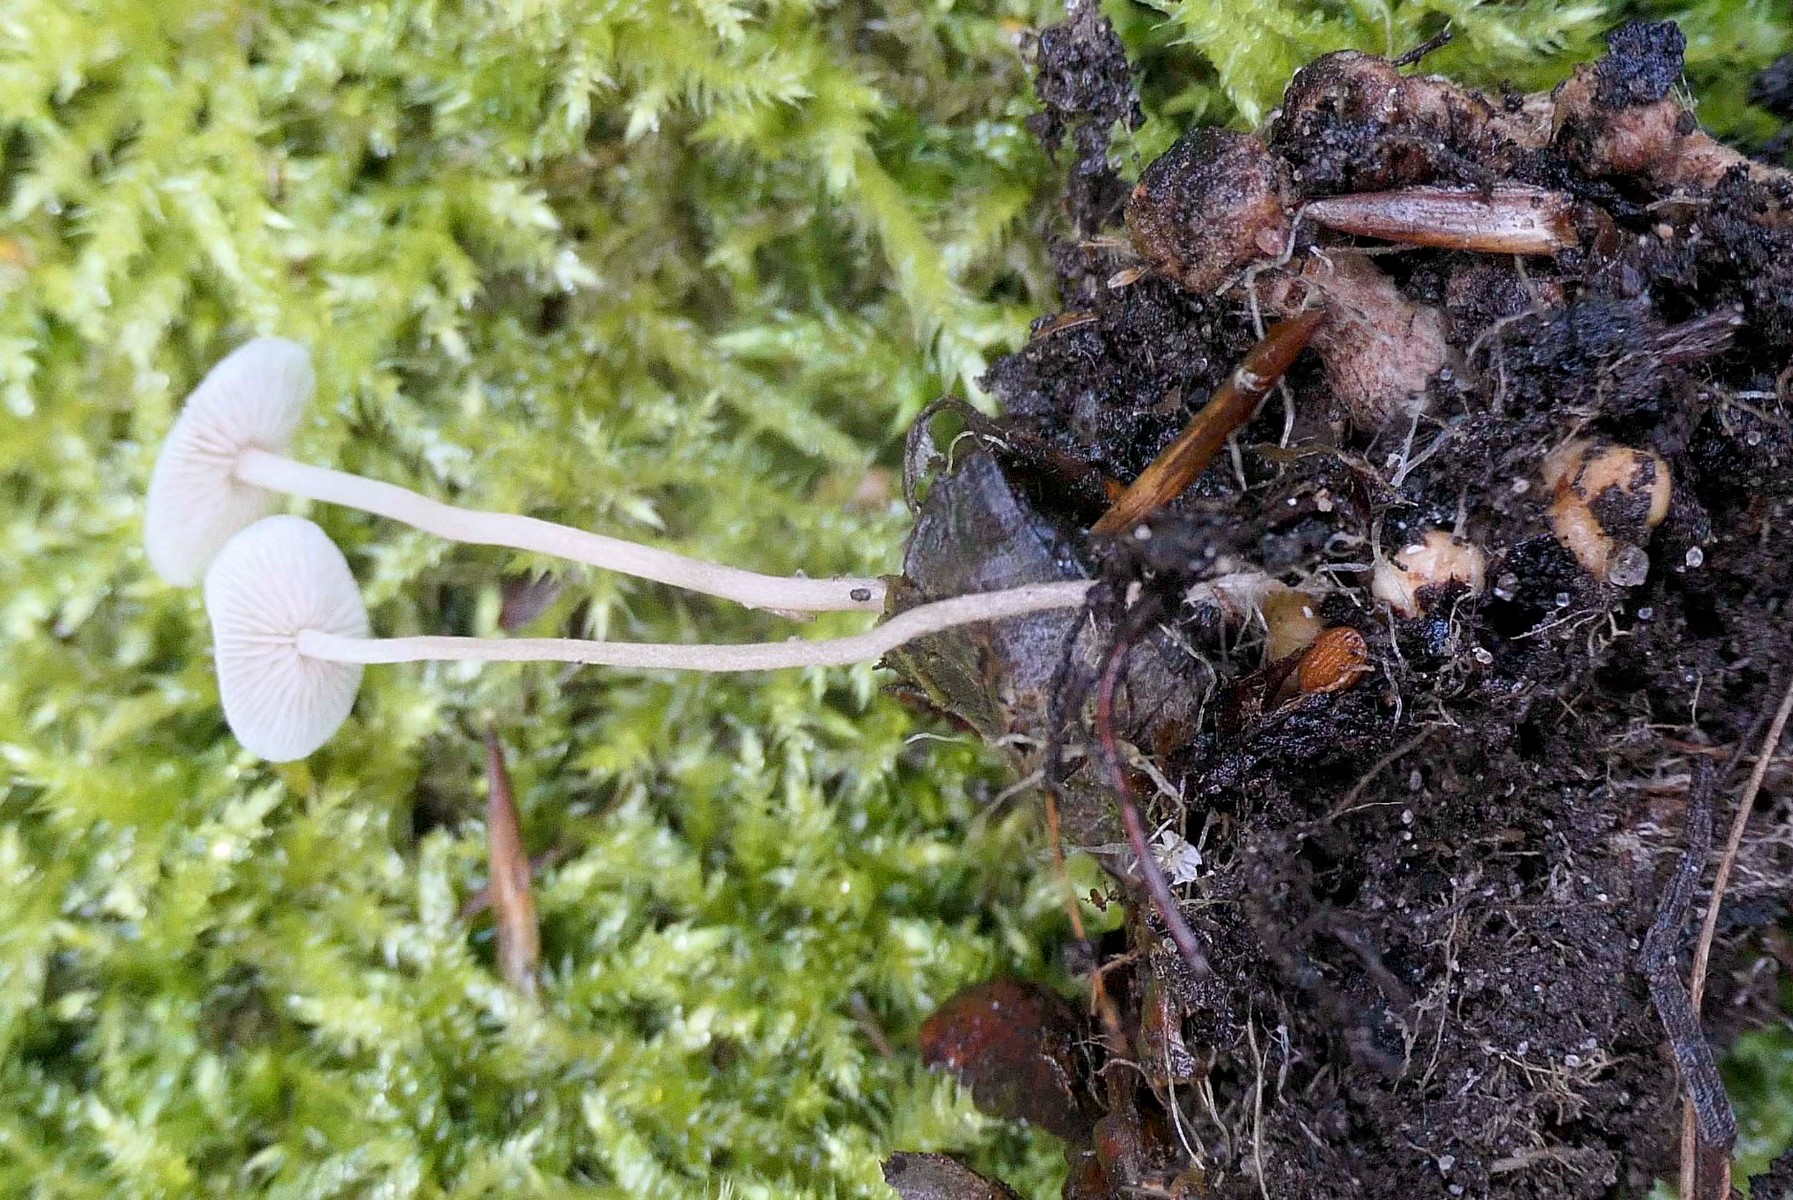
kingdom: Fungi
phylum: Basidiomycota
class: Agaricomycetes
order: Agaricales
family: Tricholomataceae
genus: Collybia
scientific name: Collybia cookei
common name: gulknoldet lighat
